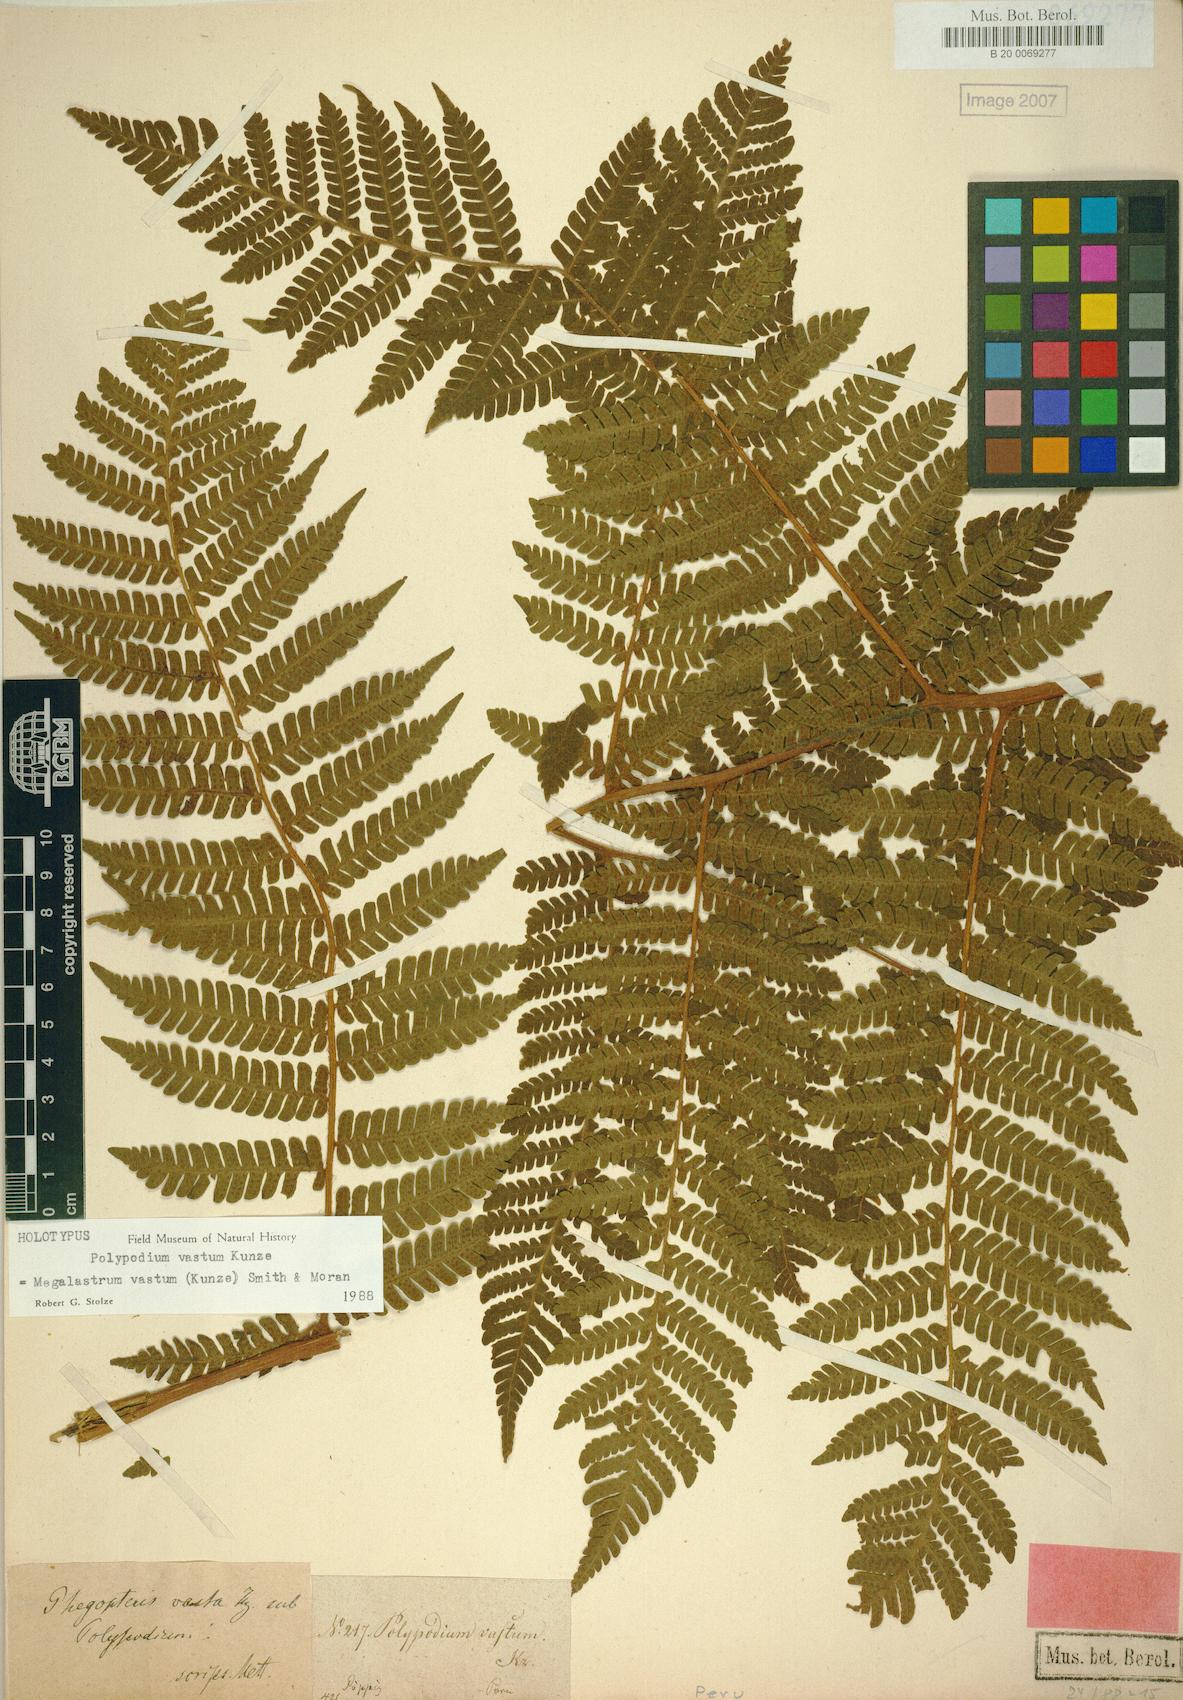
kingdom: Plantae
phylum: Tracheophyta
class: Polypodiopsida
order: Polypodiales
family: Dryopteridaceae
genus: Megalastrum
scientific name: Megalastrum vastum
